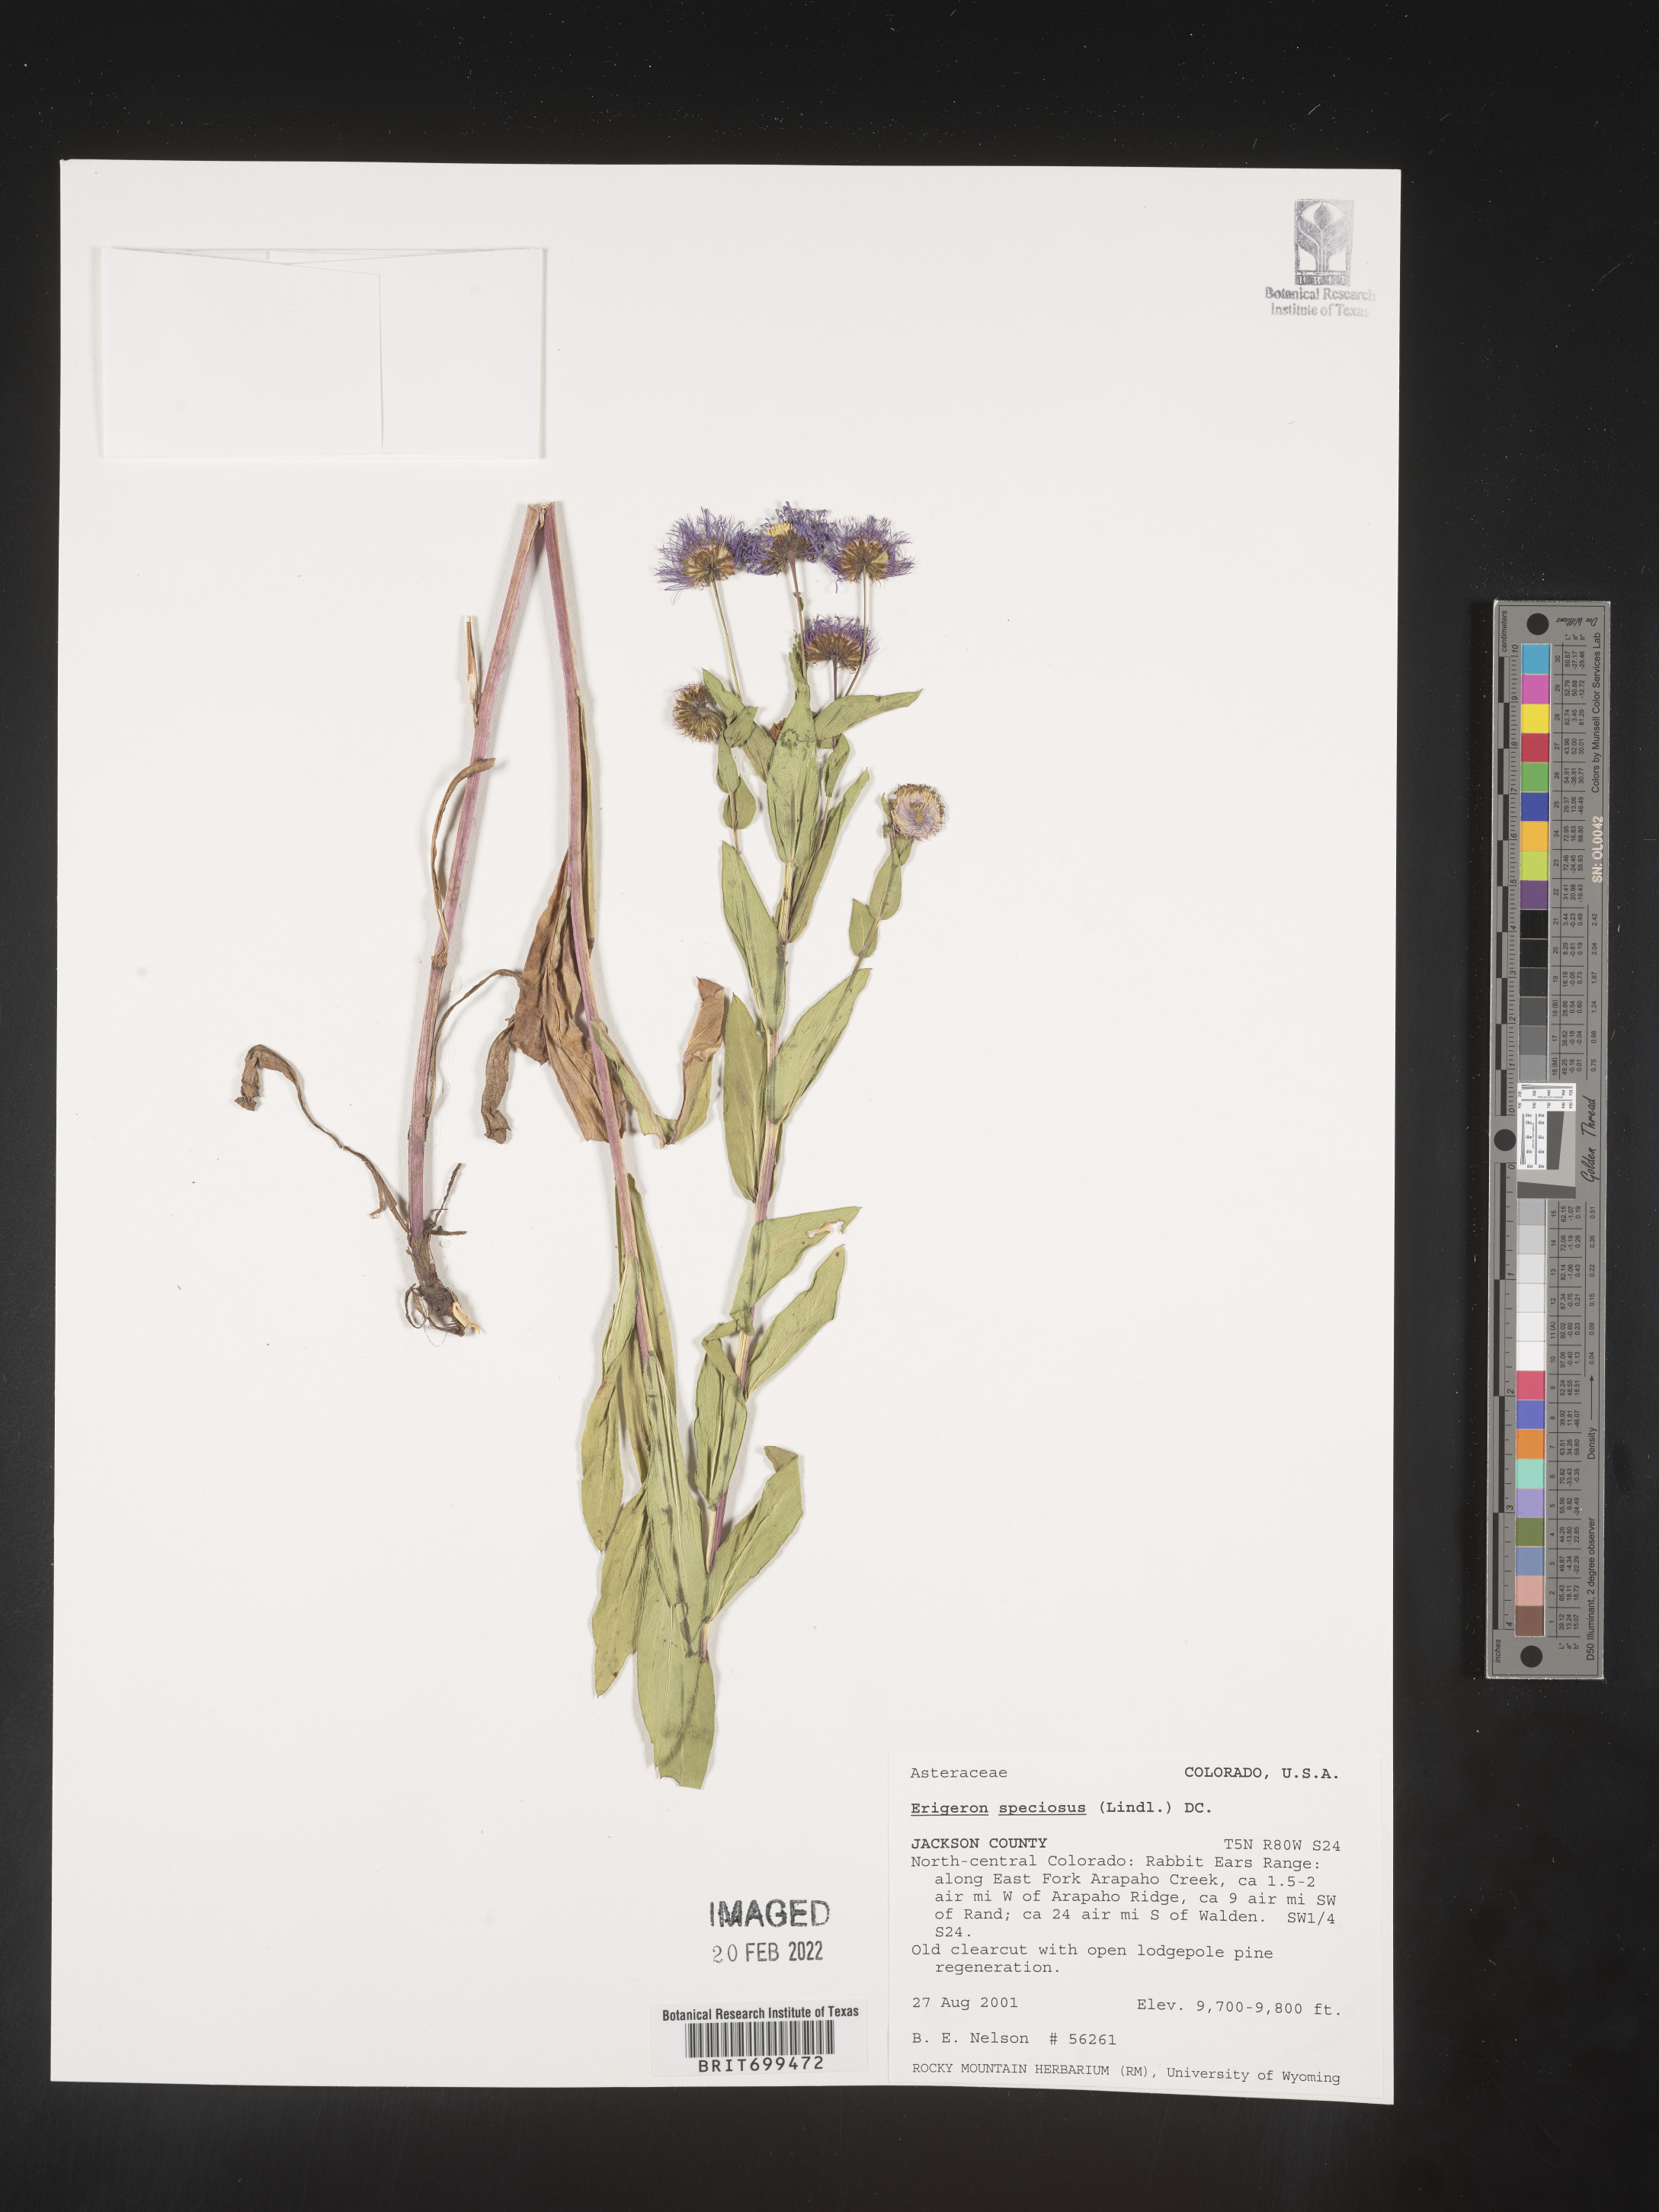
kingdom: Plantae
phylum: Tracheophyta
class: Magnoliopsida
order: Asterales
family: Asteraceae
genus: Erigeron
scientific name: Erigeron speciosus
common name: Aspen fleabane
